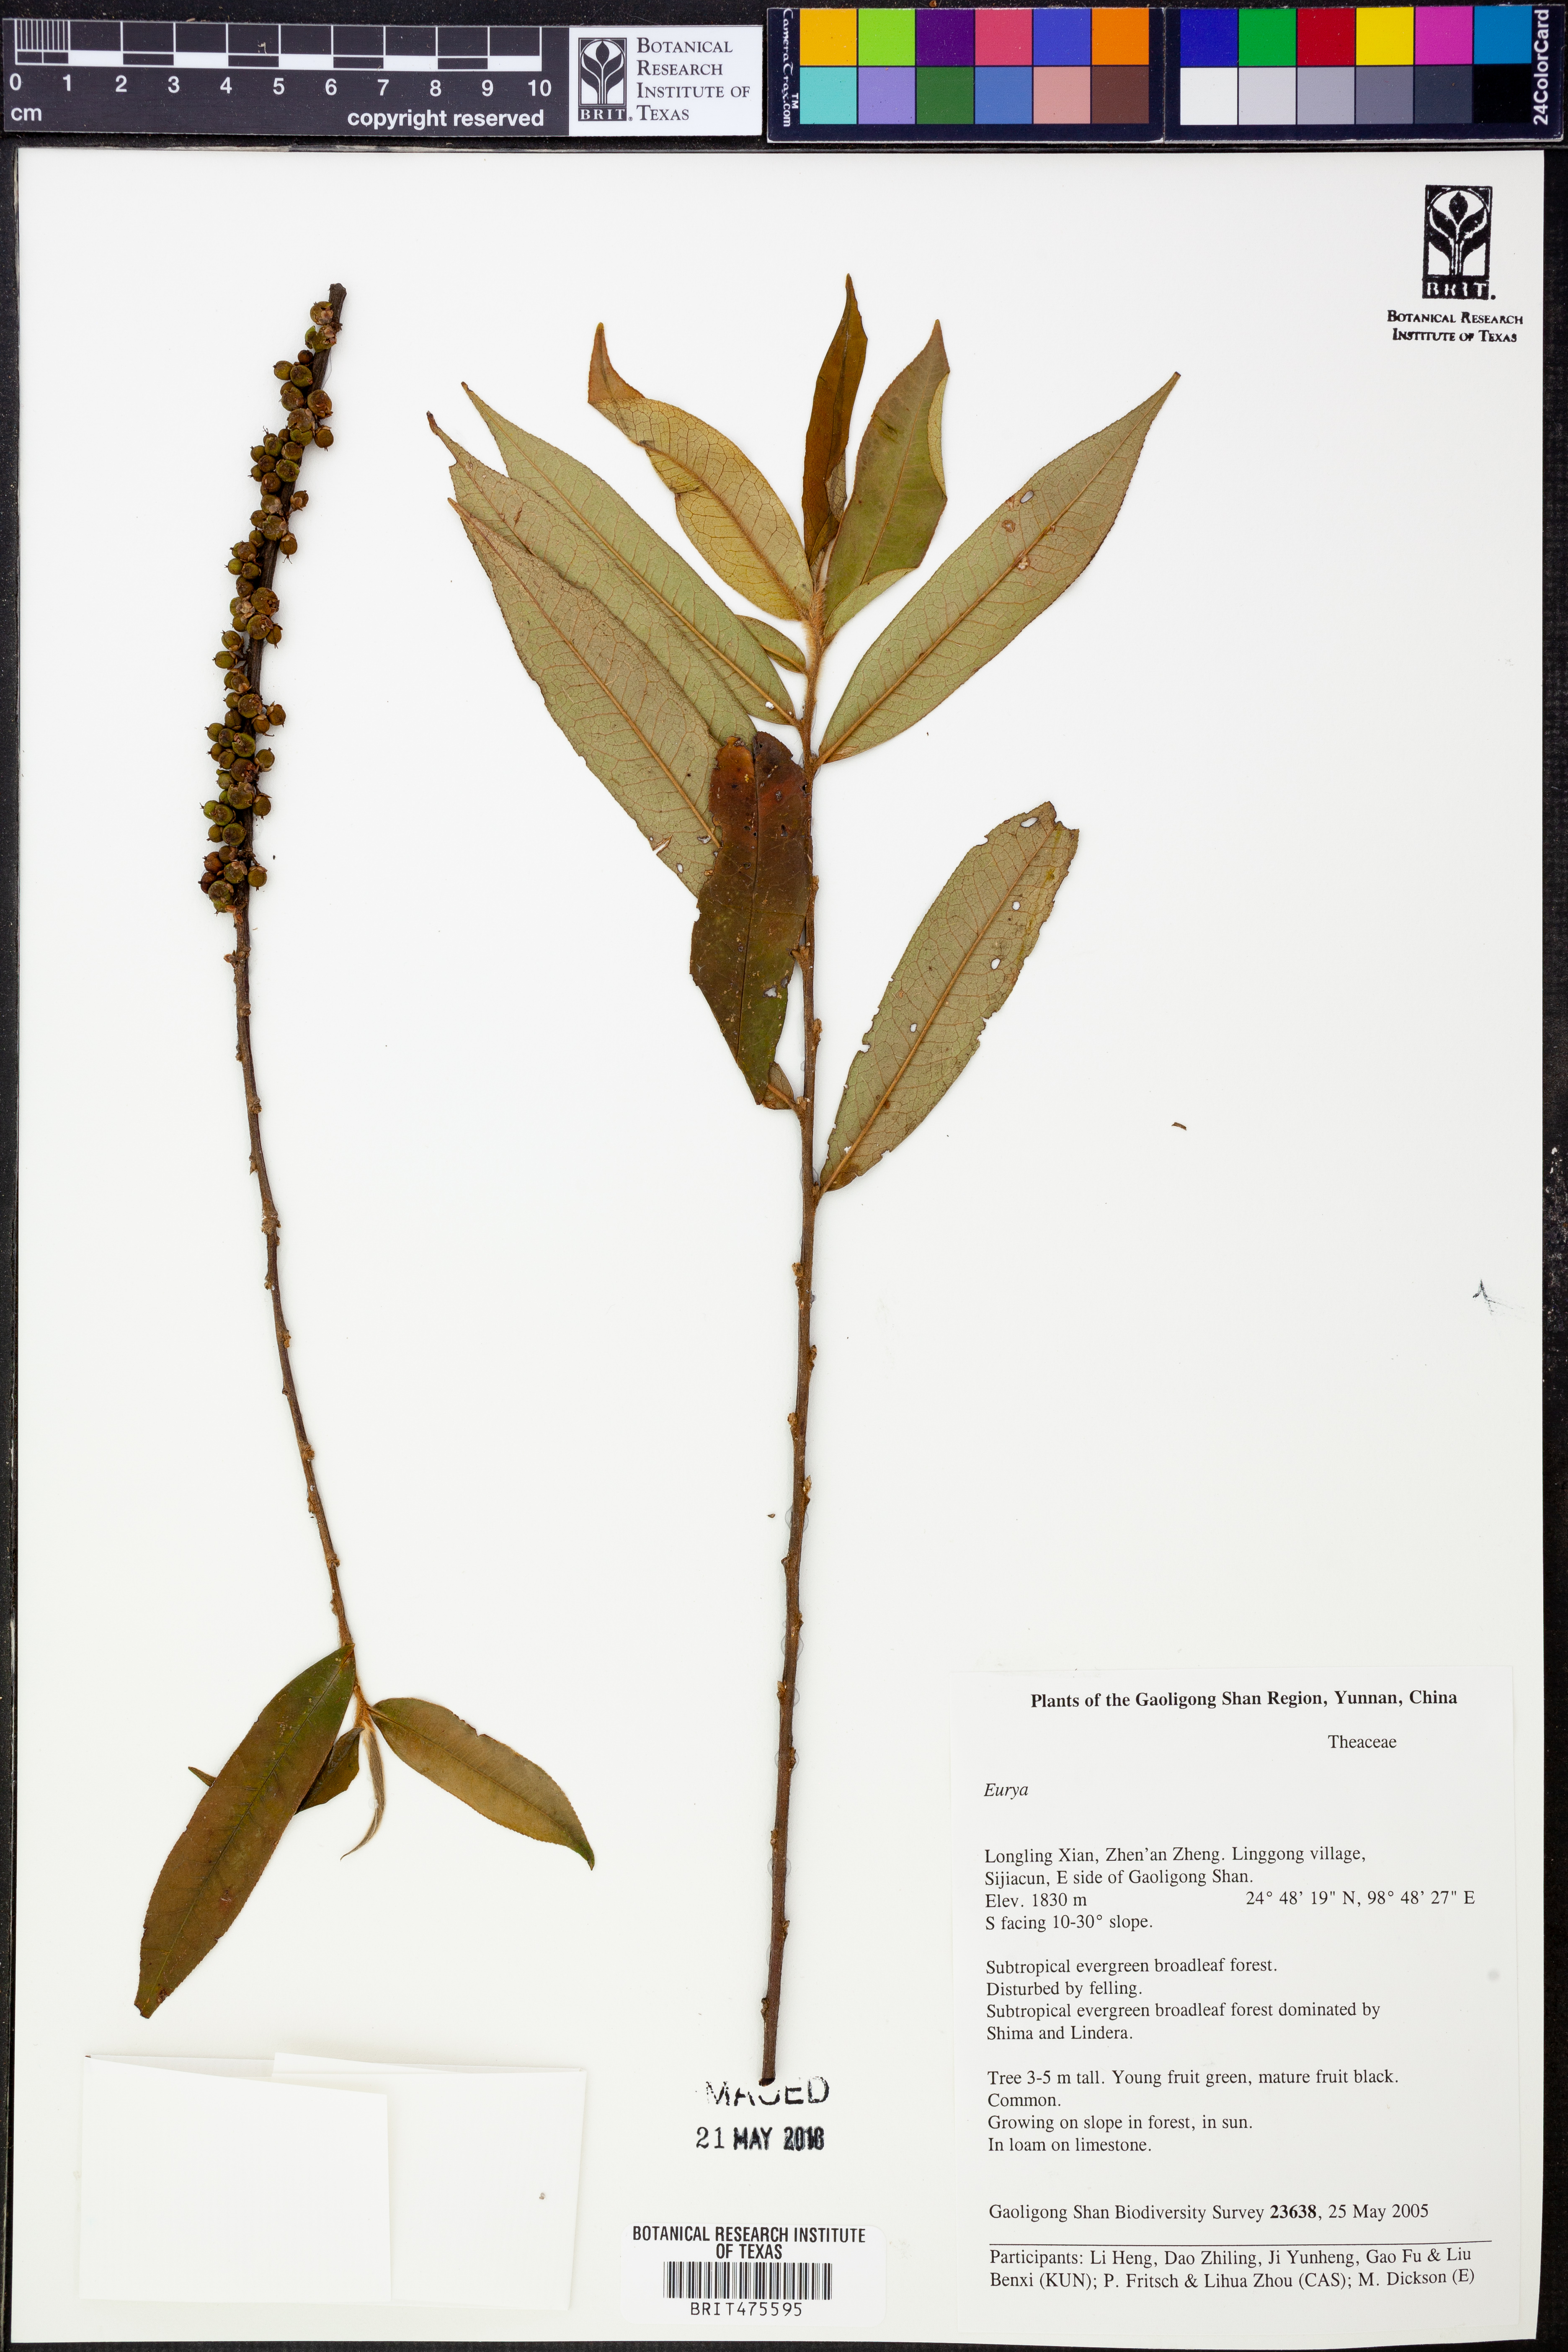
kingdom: Plantae
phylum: Tracheophyta
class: Magnoliopsida
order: Ericales
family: Pentaphylacaceae
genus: Eurya
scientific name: Eurya
